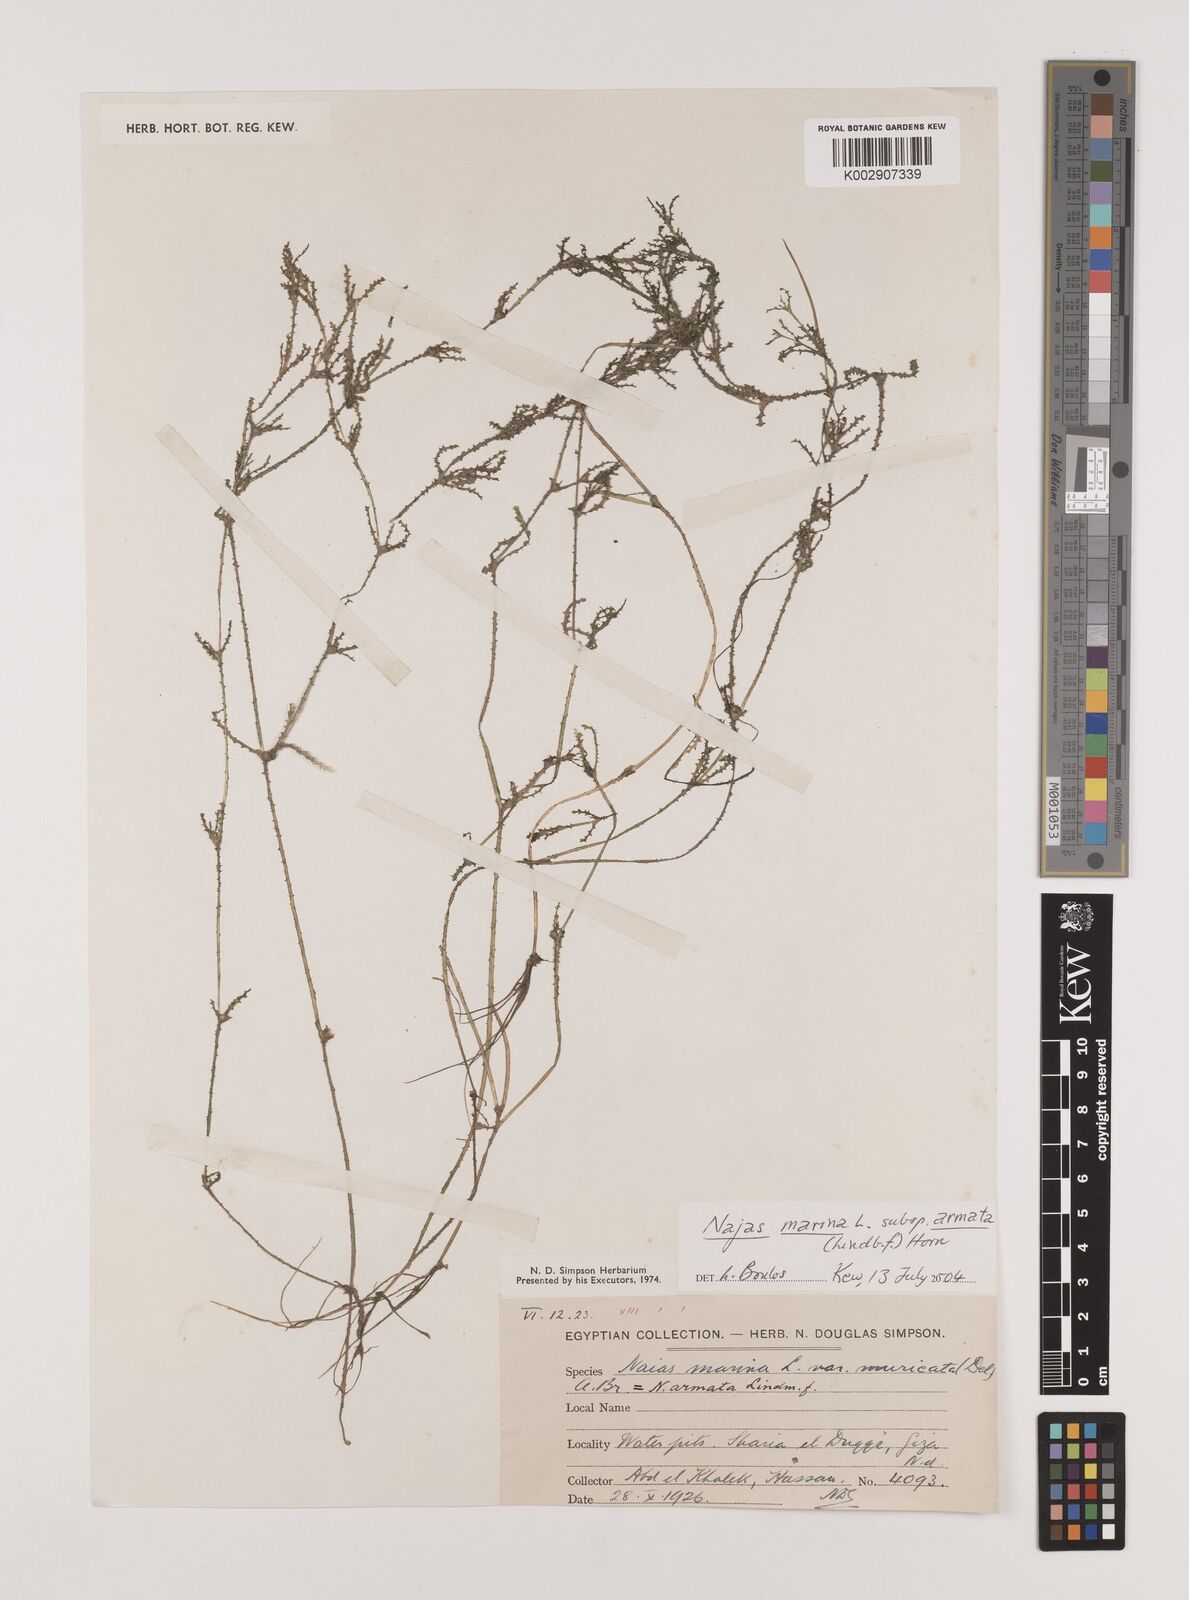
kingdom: Plantae
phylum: Tracheophyta
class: Liliopsida
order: Alismatales
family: Hydrocharitaceae
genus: Najas
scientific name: Najas marina
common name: Holly-leaved naiad
